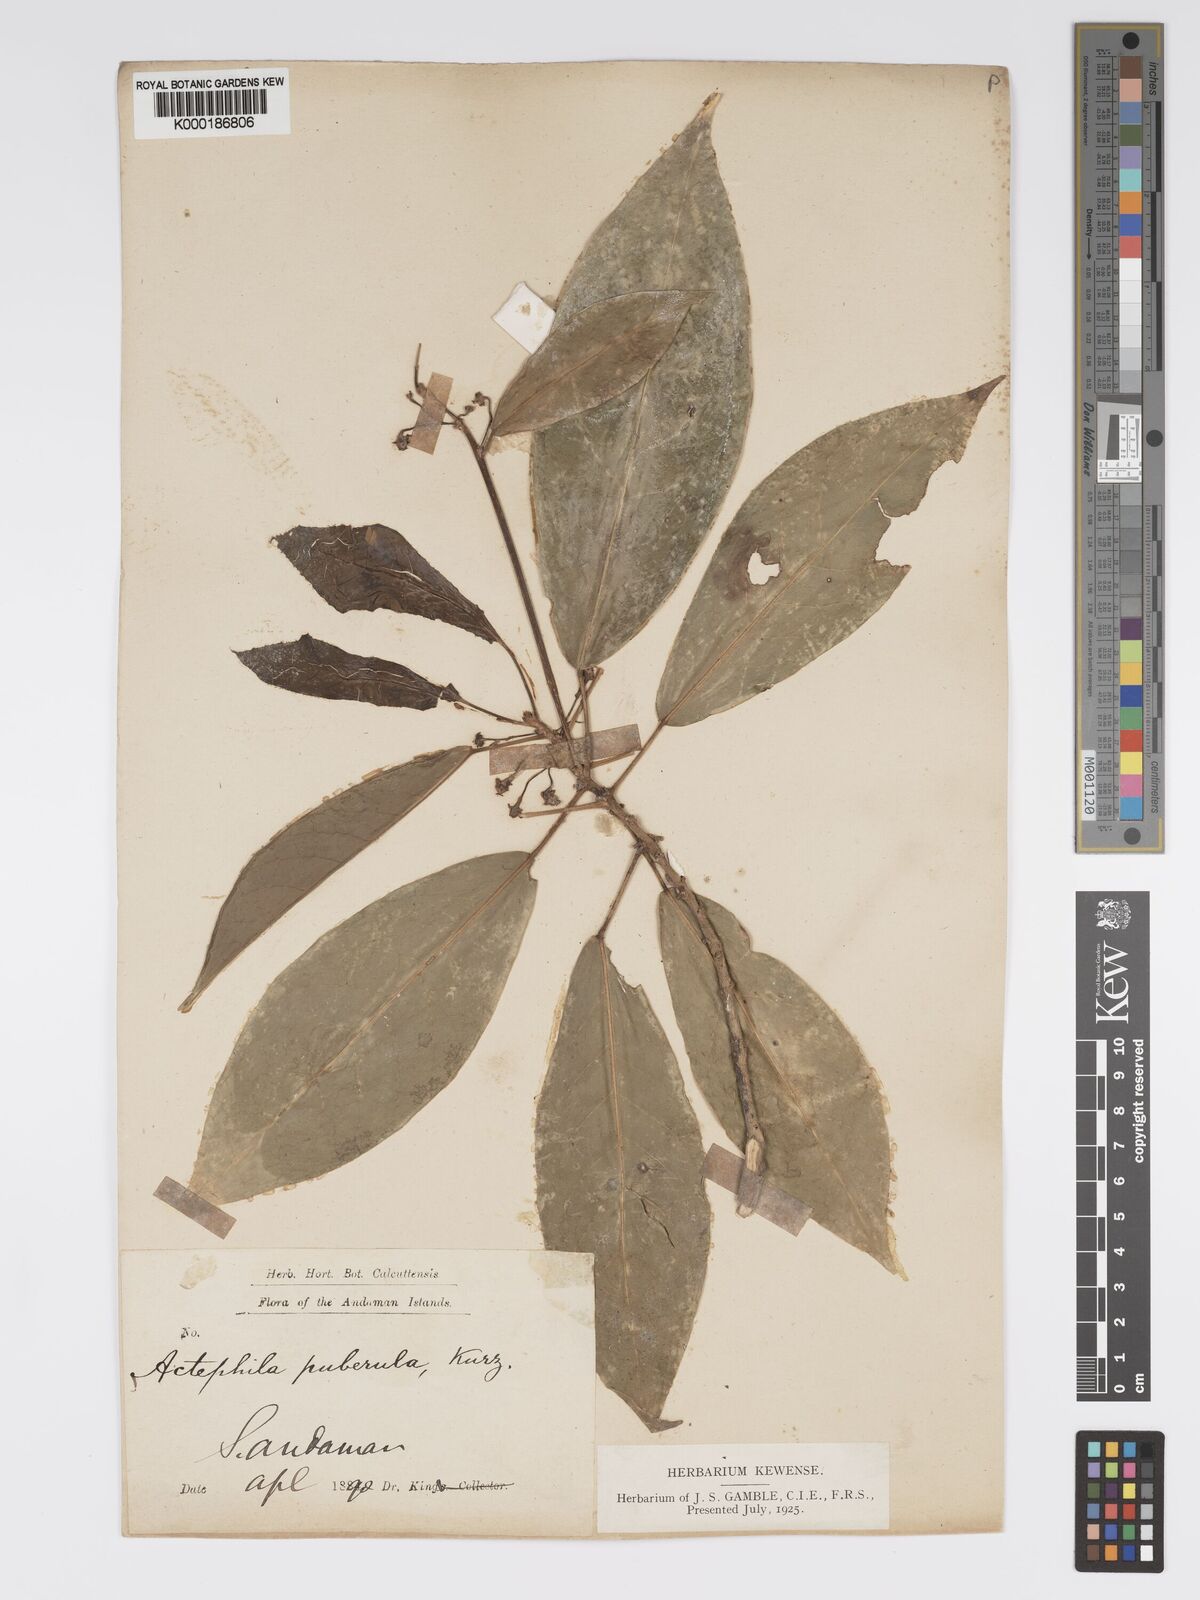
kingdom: Plantae
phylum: Tracheophyta
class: Magnoliopsida
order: Malpighiales
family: Phyllanthaceae
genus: Actephila
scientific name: Actephila excelsa
